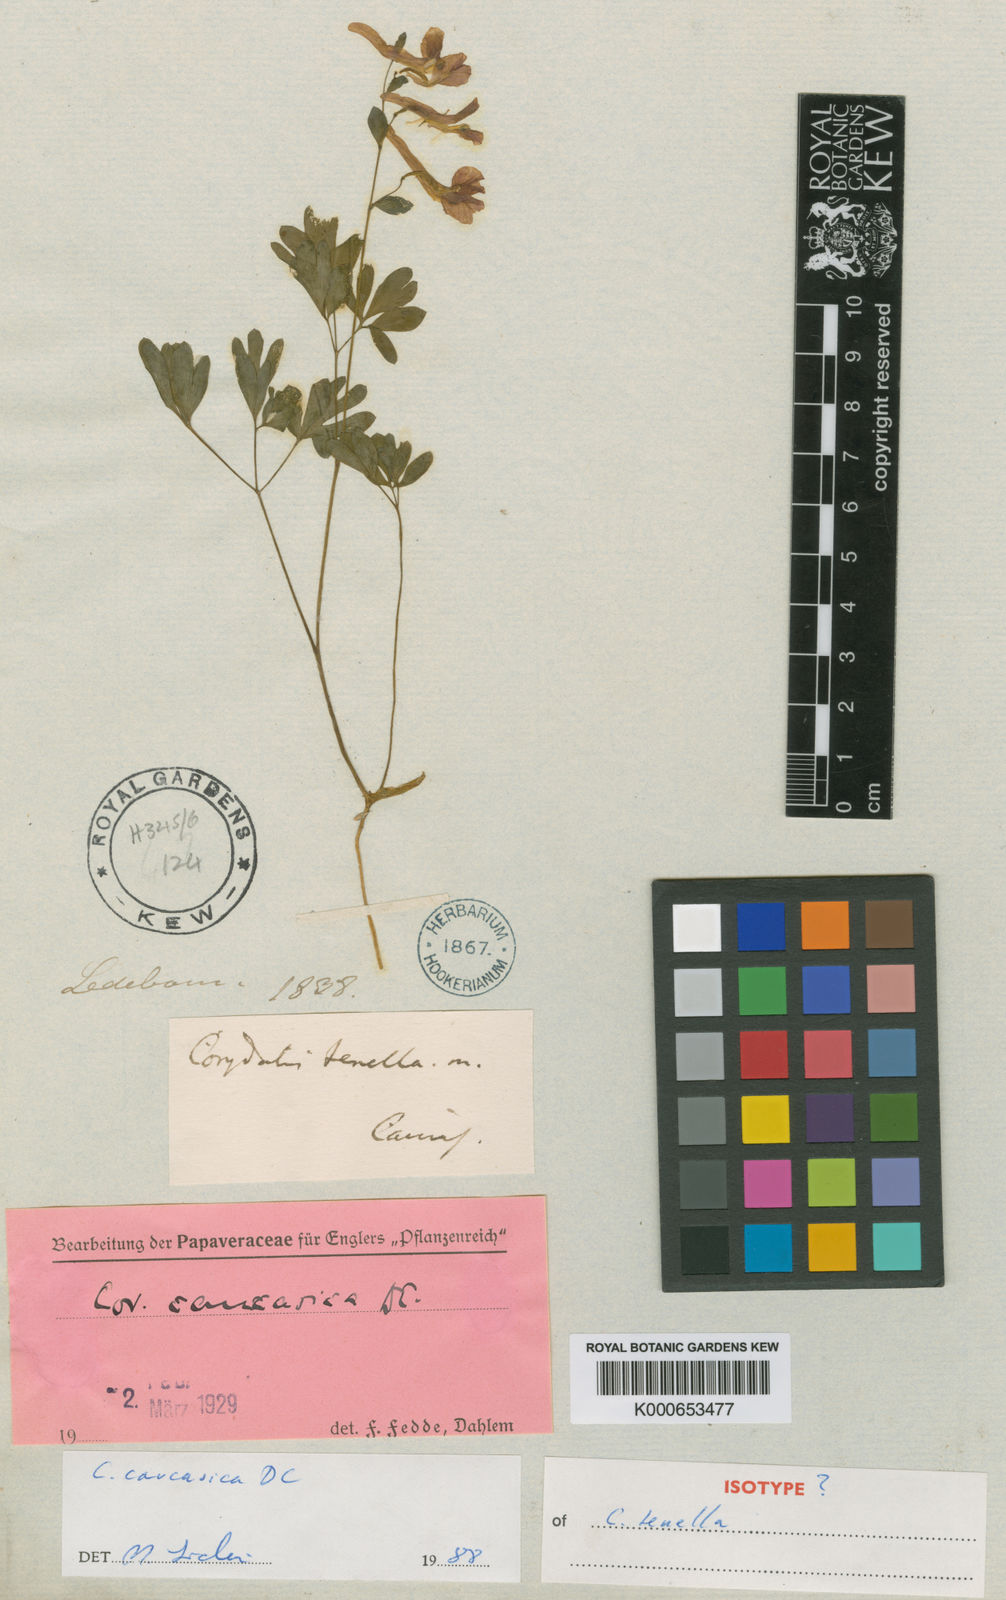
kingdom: Plantae
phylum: Tracheophyta
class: Magnoliopsida
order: Ranunculales
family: Papaveraceae
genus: Corydalis
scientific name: Corydalis caucasica
